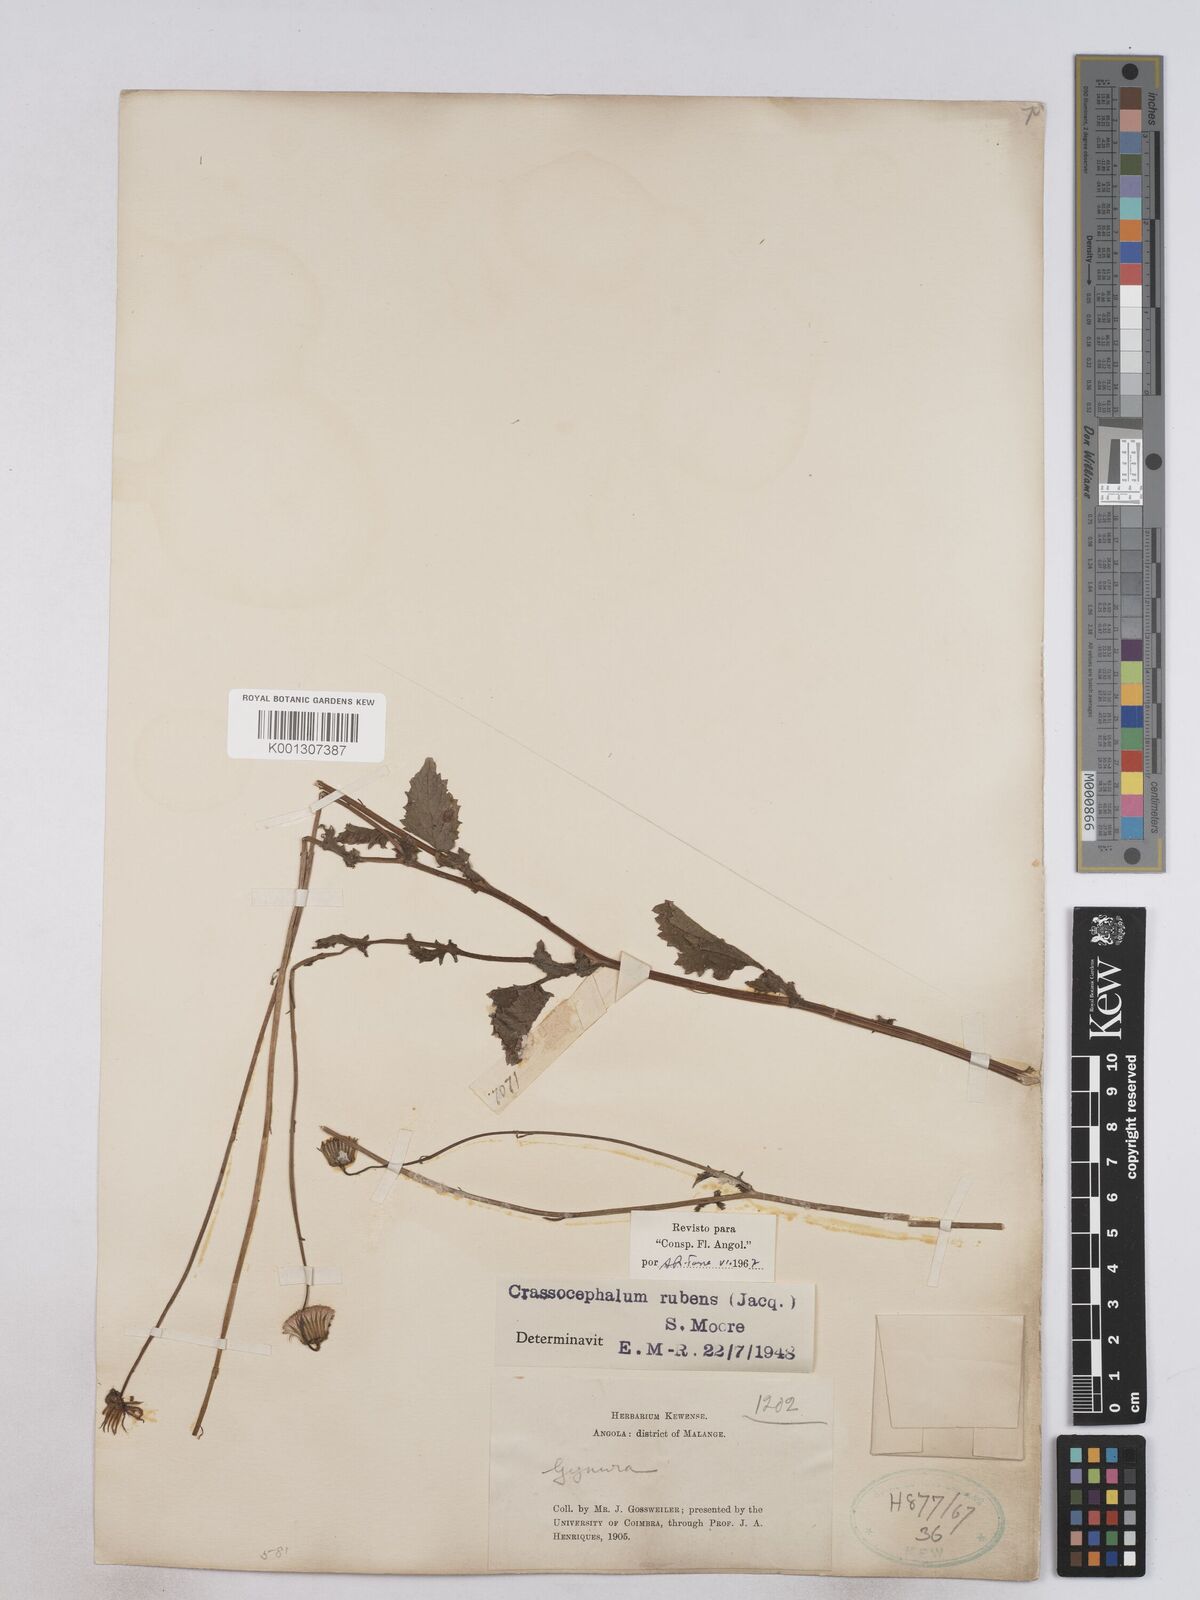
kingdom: Plantae
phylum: Tracheophyta
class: Magnoliopsida
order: Asterales
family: Asteraceae
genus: Crassocephalum
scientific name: Crassocephalum rubens
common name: Yoruban bologi
